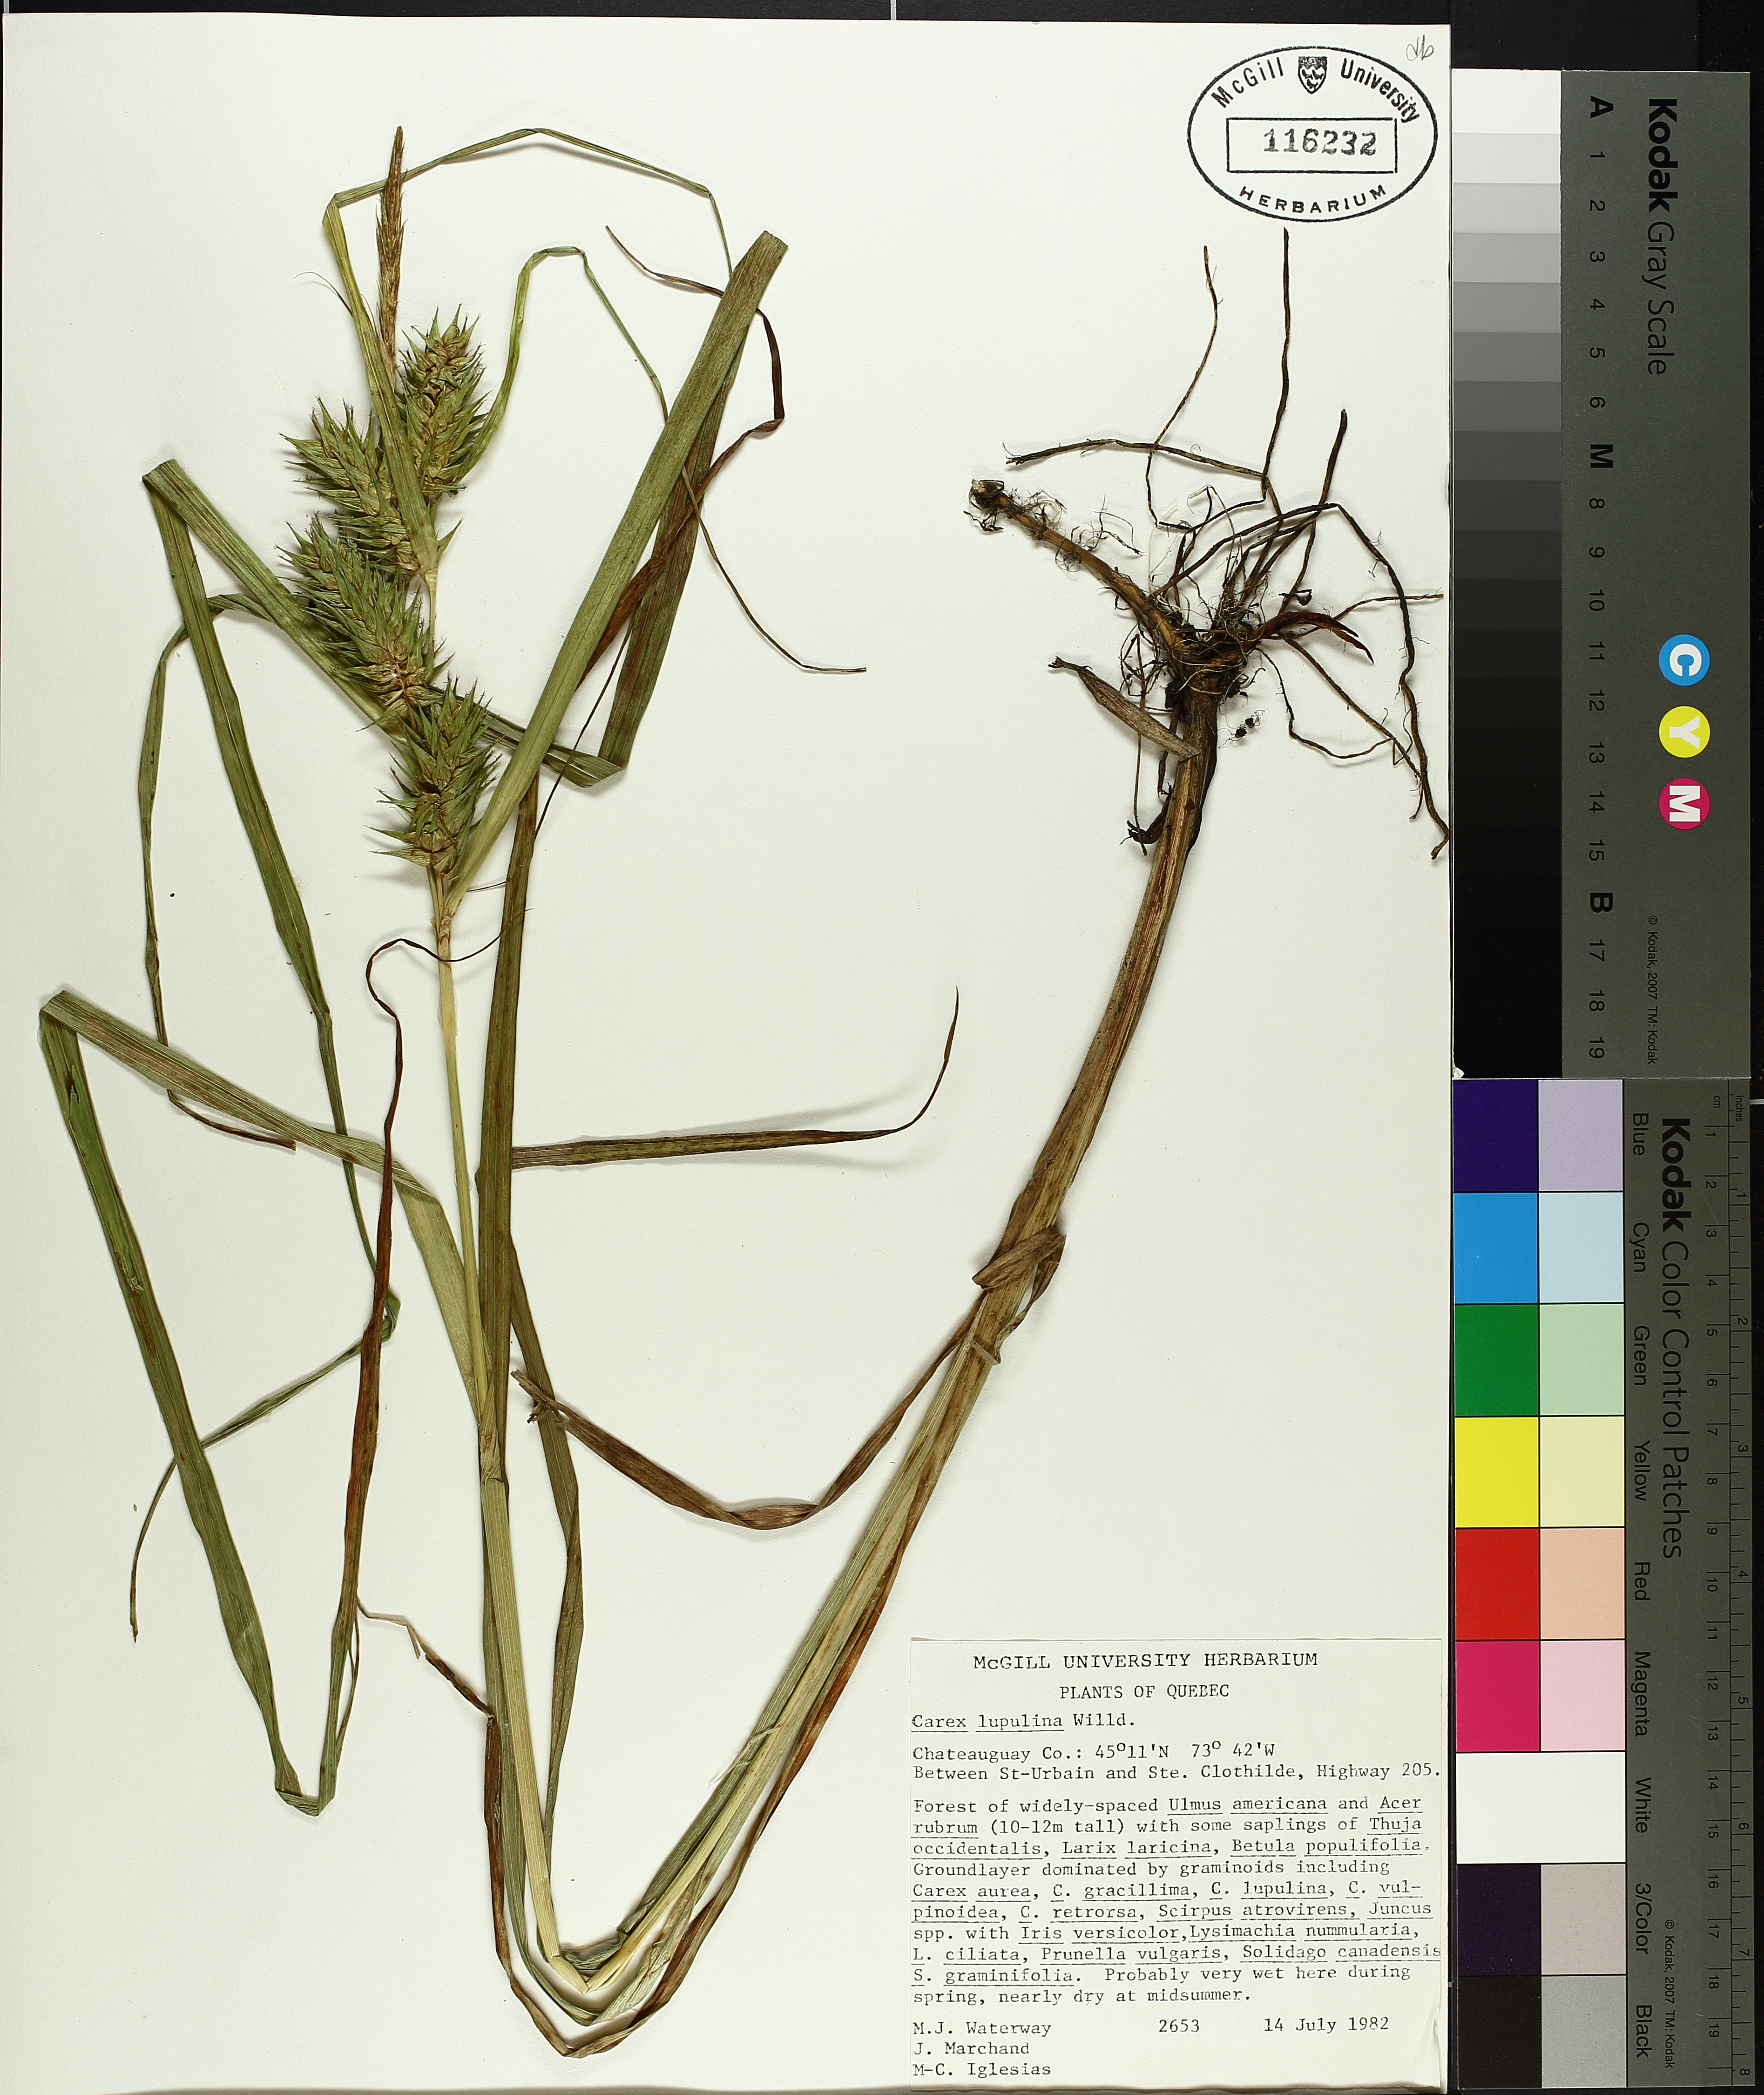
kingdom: Plantae
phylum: Tracheophyta
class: Liliopsida
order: Poales
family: Cyperaceae
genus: Carex
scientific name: Carex lupulina
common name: Hop sedge
